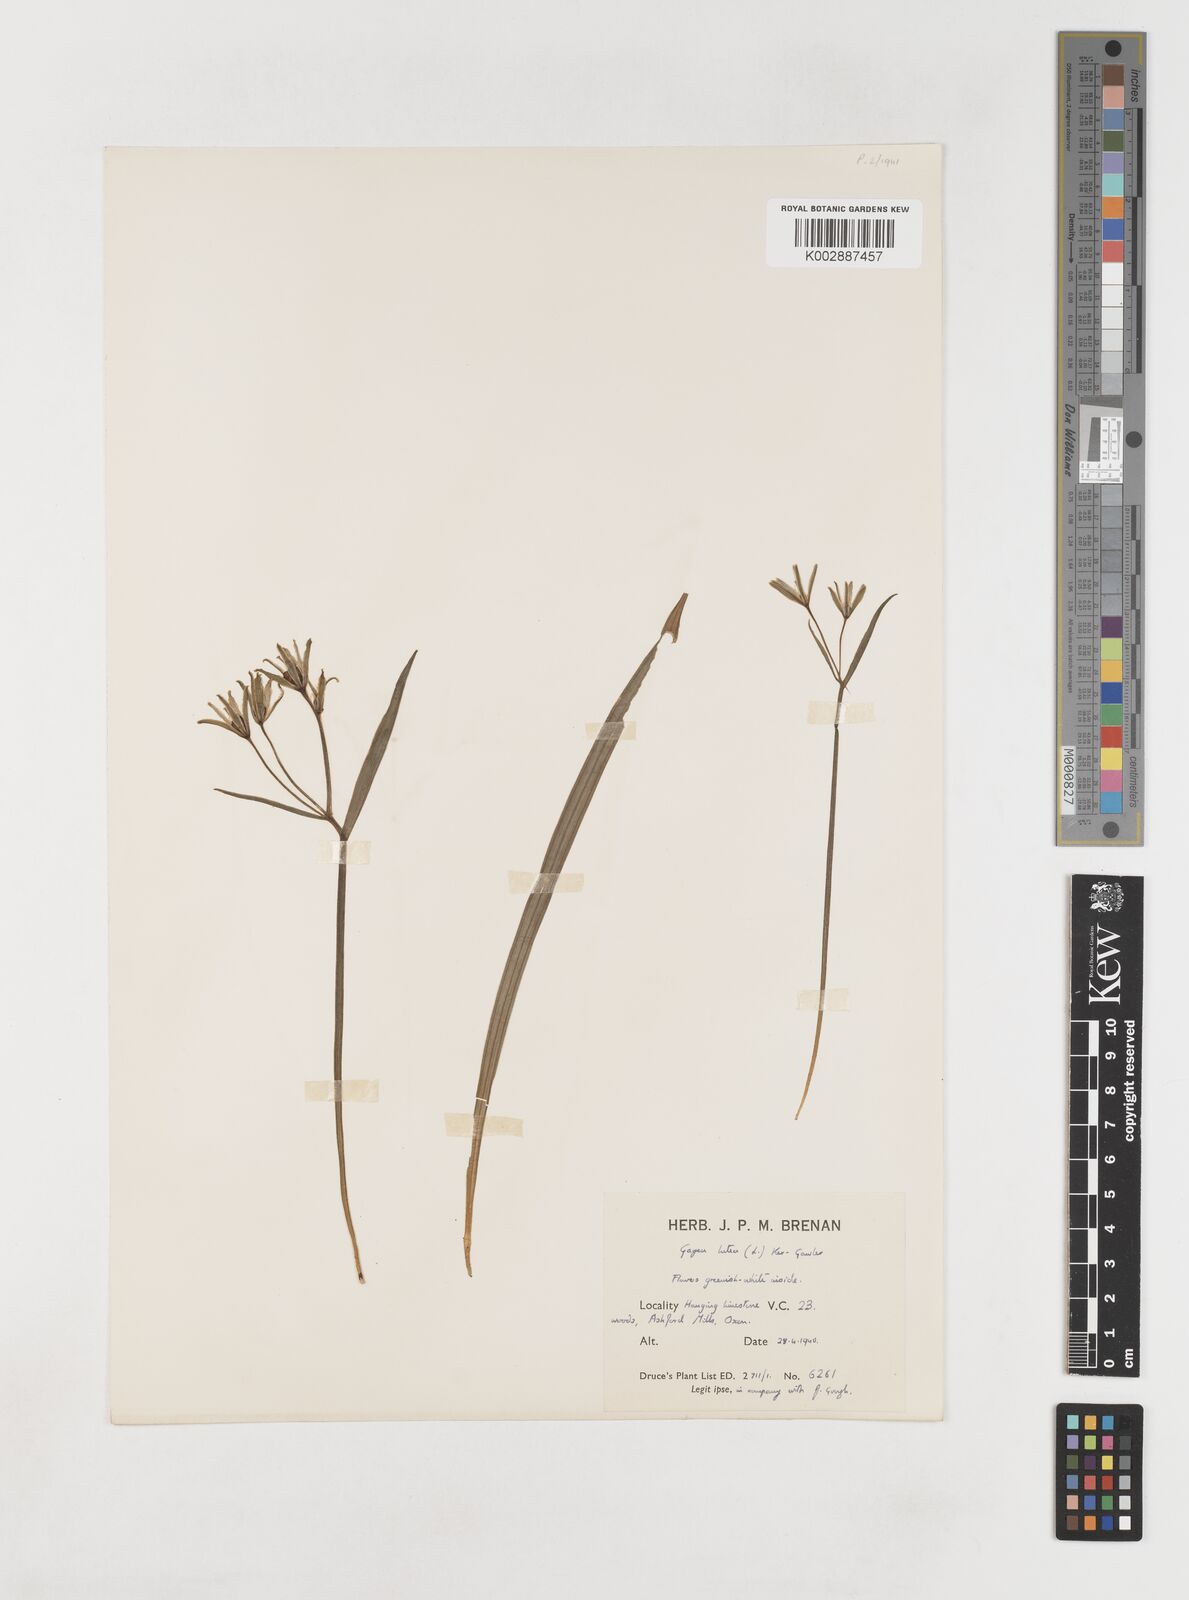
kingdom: Plantae
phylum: Tracheophyta
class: Liliopsida
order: Liliales
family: Liliaceae
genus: Gagea
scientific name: Gagea lutea
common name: Yellow star-of-bethlehem
